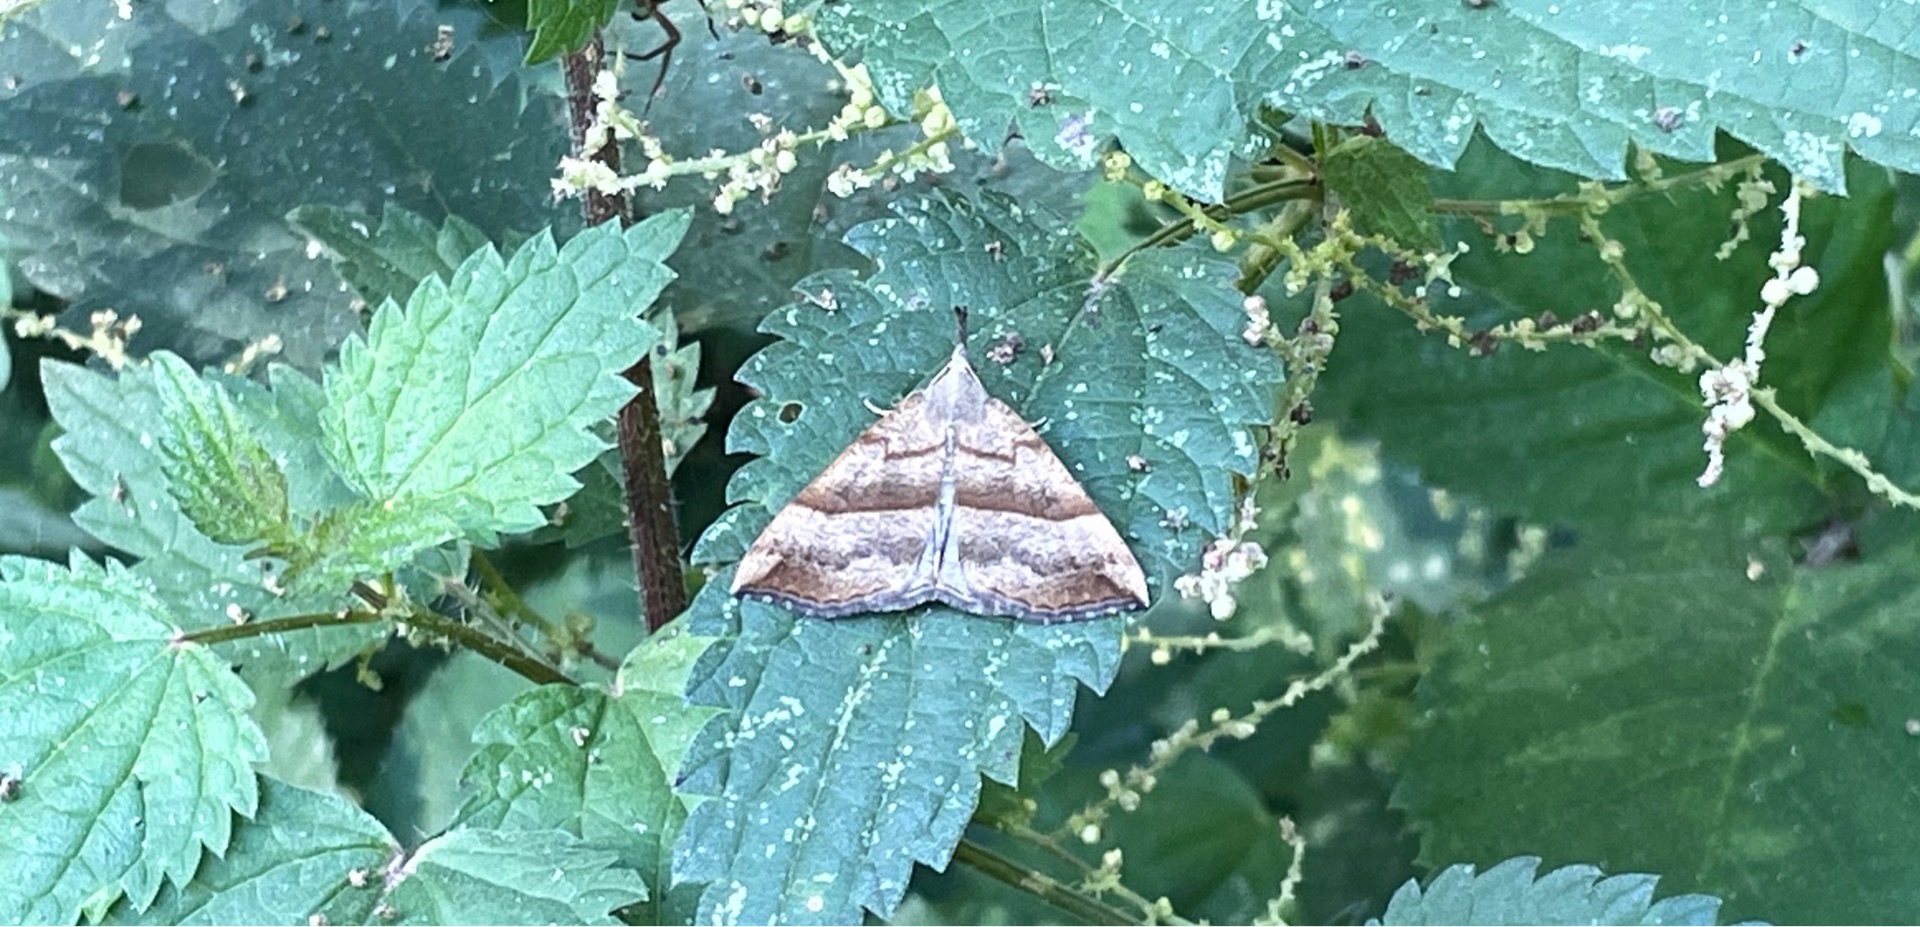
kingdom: Animalia
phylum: Arthropoda
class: Insecta
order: Lepidoptera
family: Erebidae
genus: Hypena
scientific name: Hypena proboscidalis
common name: Snudeugle
